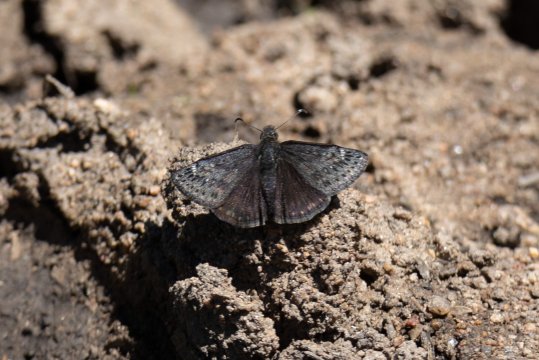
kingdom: Animalia
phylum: Arthropoda
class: Insecta
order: Lepidoptera
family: Hesperiidae
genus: Gesta
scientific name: Gesta
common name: Persius Duskywing
